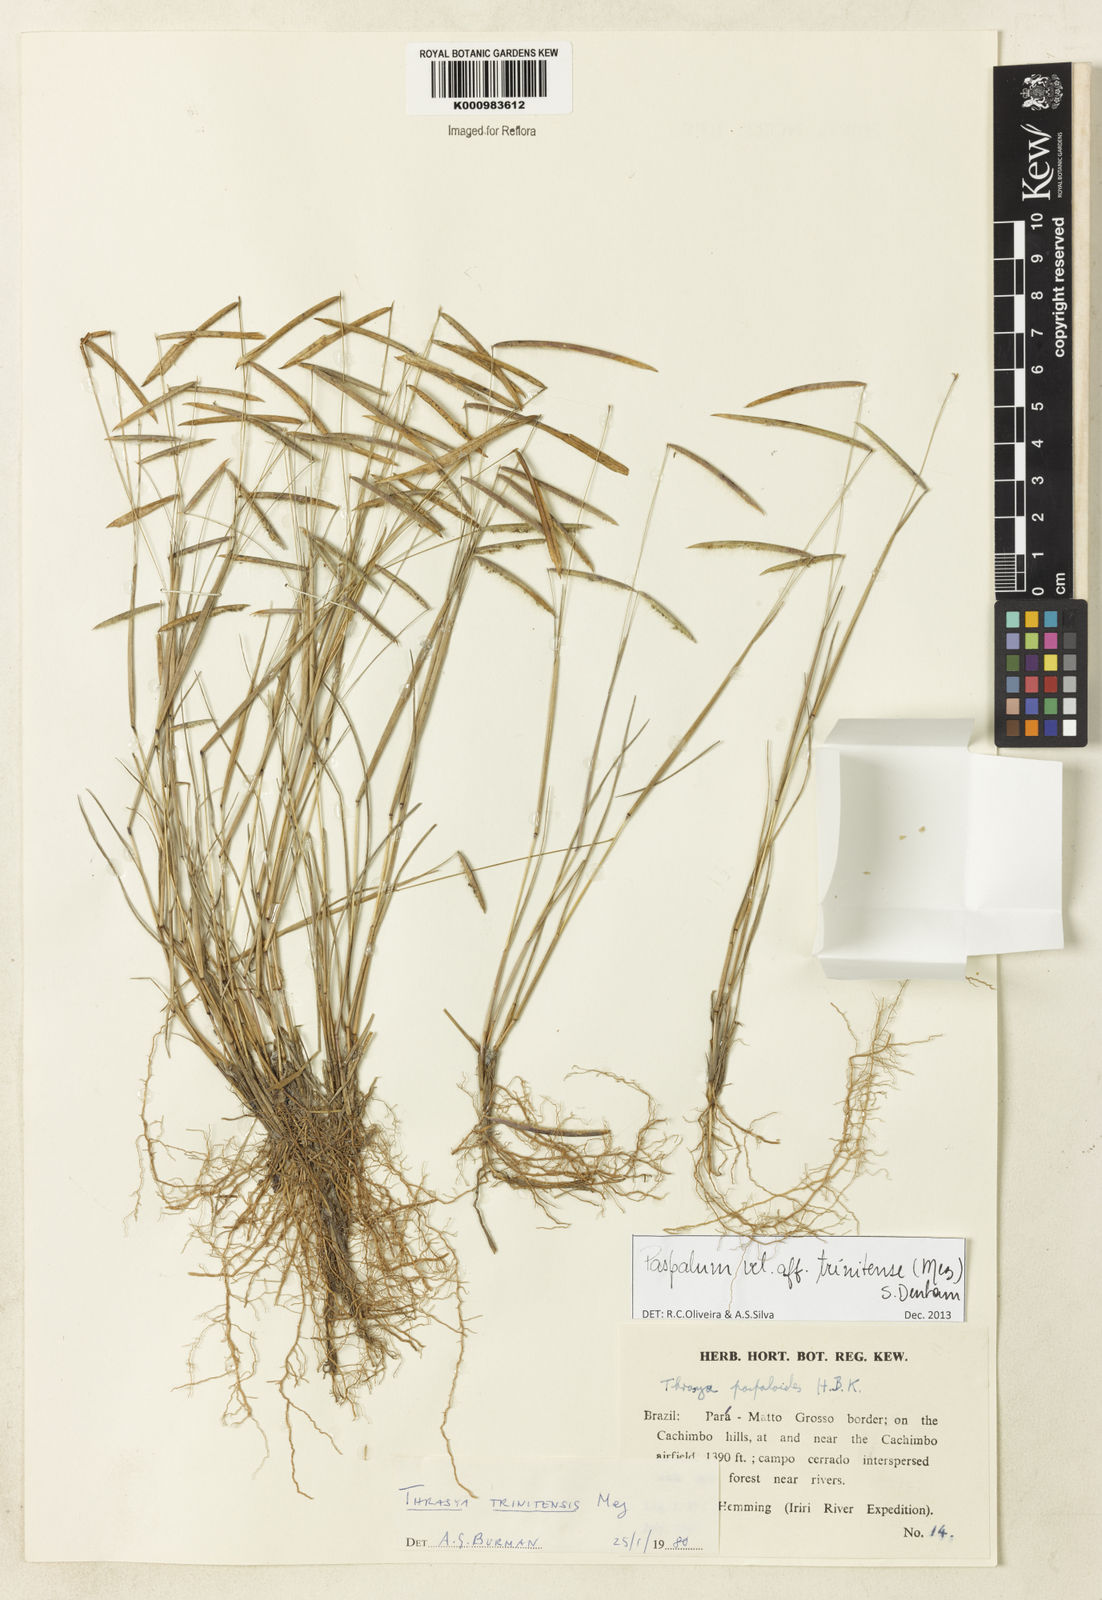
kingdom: Plantae
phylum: Tracheophyta
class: Liliopsida
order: Poales
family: Poaceae
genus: Paspalum
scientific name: Paspalum trinitense
